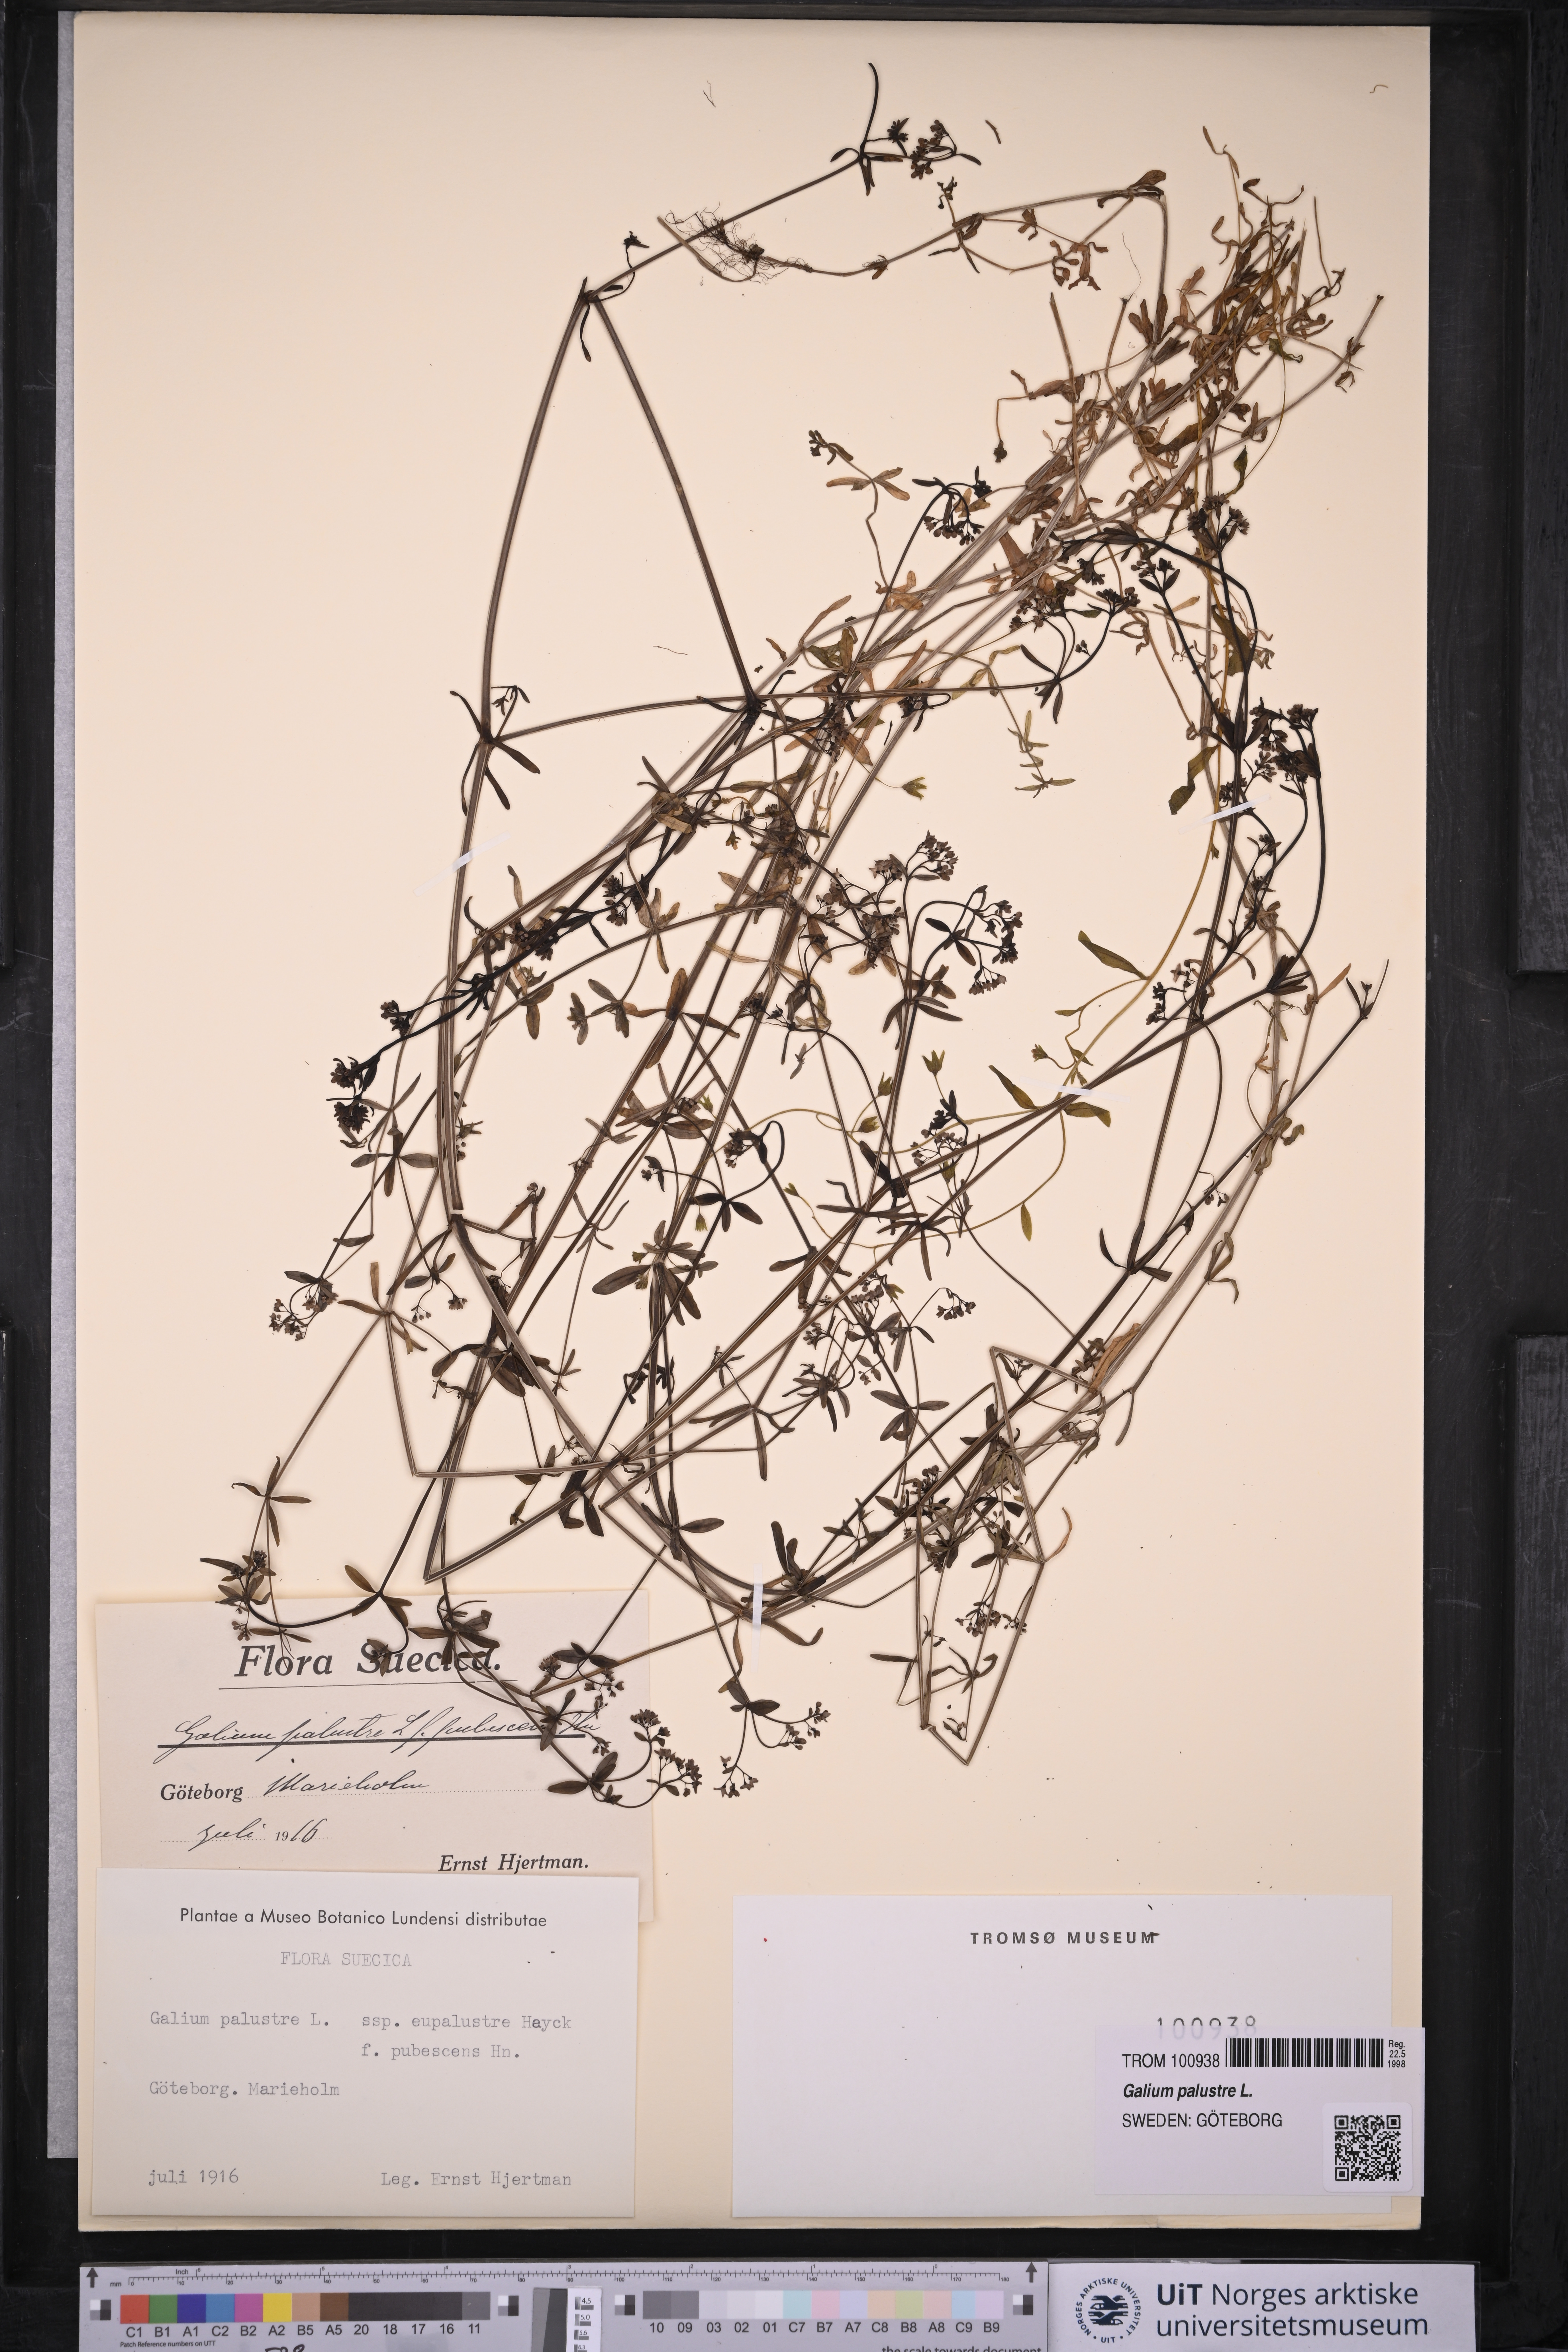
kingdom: Plantae
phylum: Tracheophyta
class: Magnoliopsida
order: Gentianales
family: Rubiaceae
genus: Galium
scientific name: Galium palustre
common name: Common marsh-bedstraw
